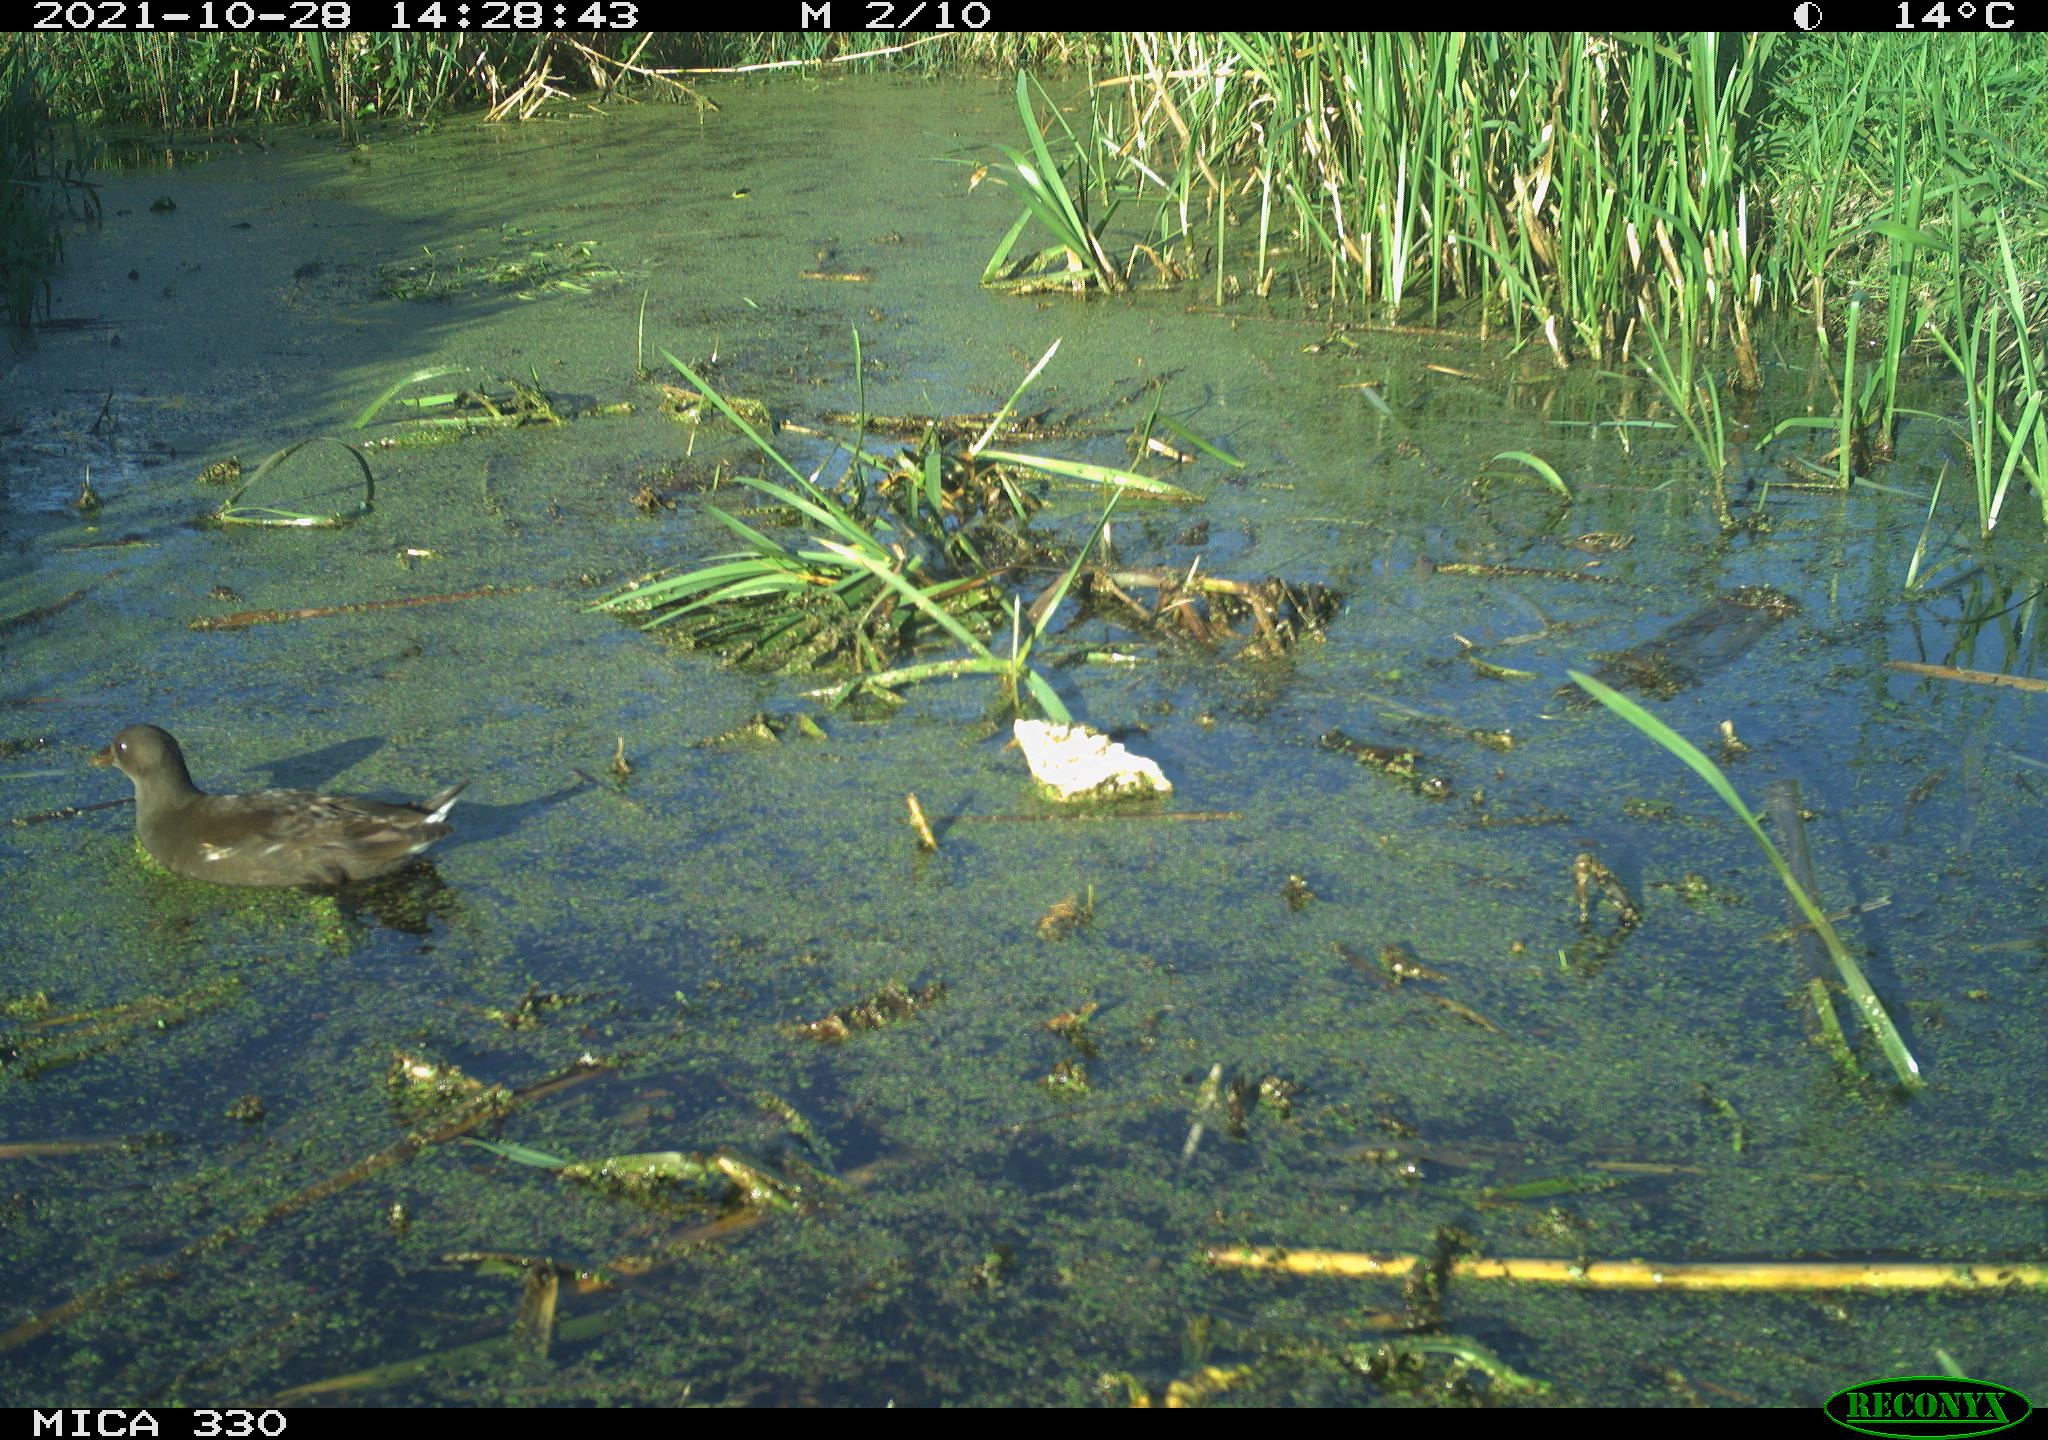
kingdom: Animalia
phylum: Chordata
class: Aves
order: Gruiformes
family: Rallidae
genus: Gallinula
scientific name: Gallinula chloropus
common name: Common moorhen
